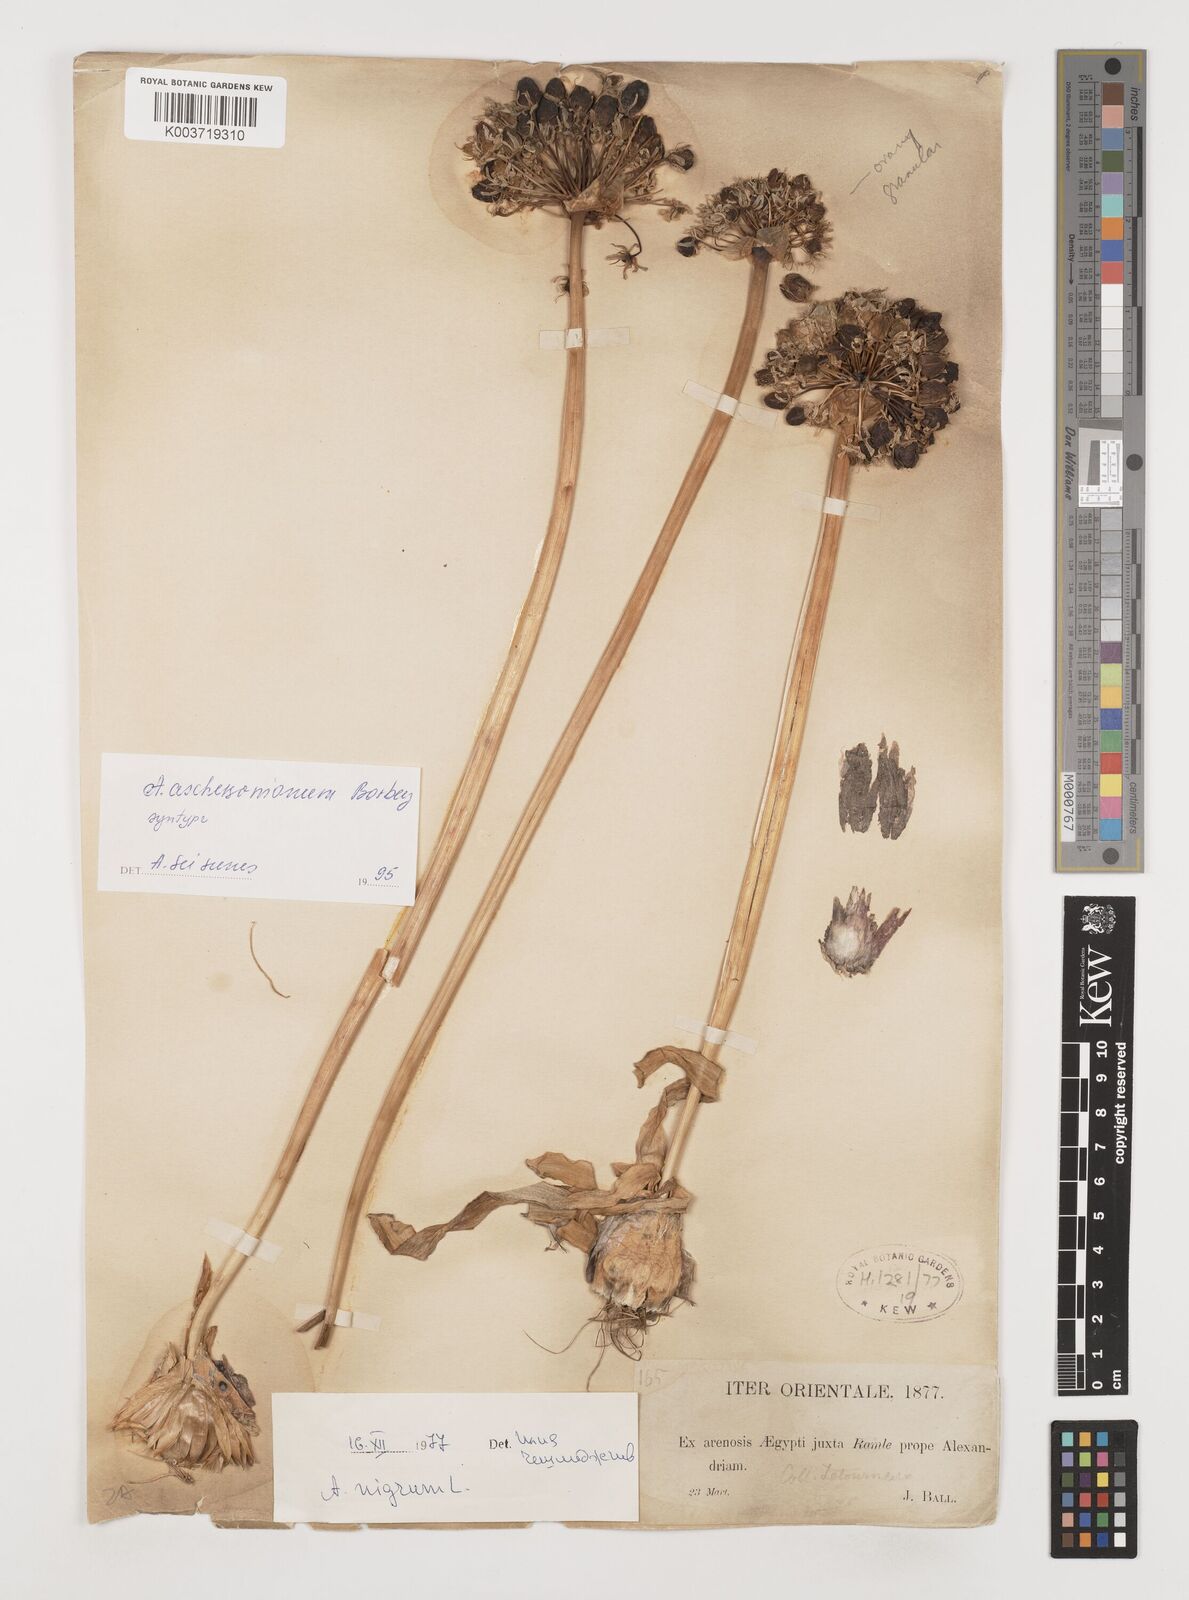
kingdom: Plantae
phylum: Tracheophyta
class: Liliopsida
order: Asparagales
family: Amaryllidaceae
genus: Allium
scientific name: Allium aschersonianum
